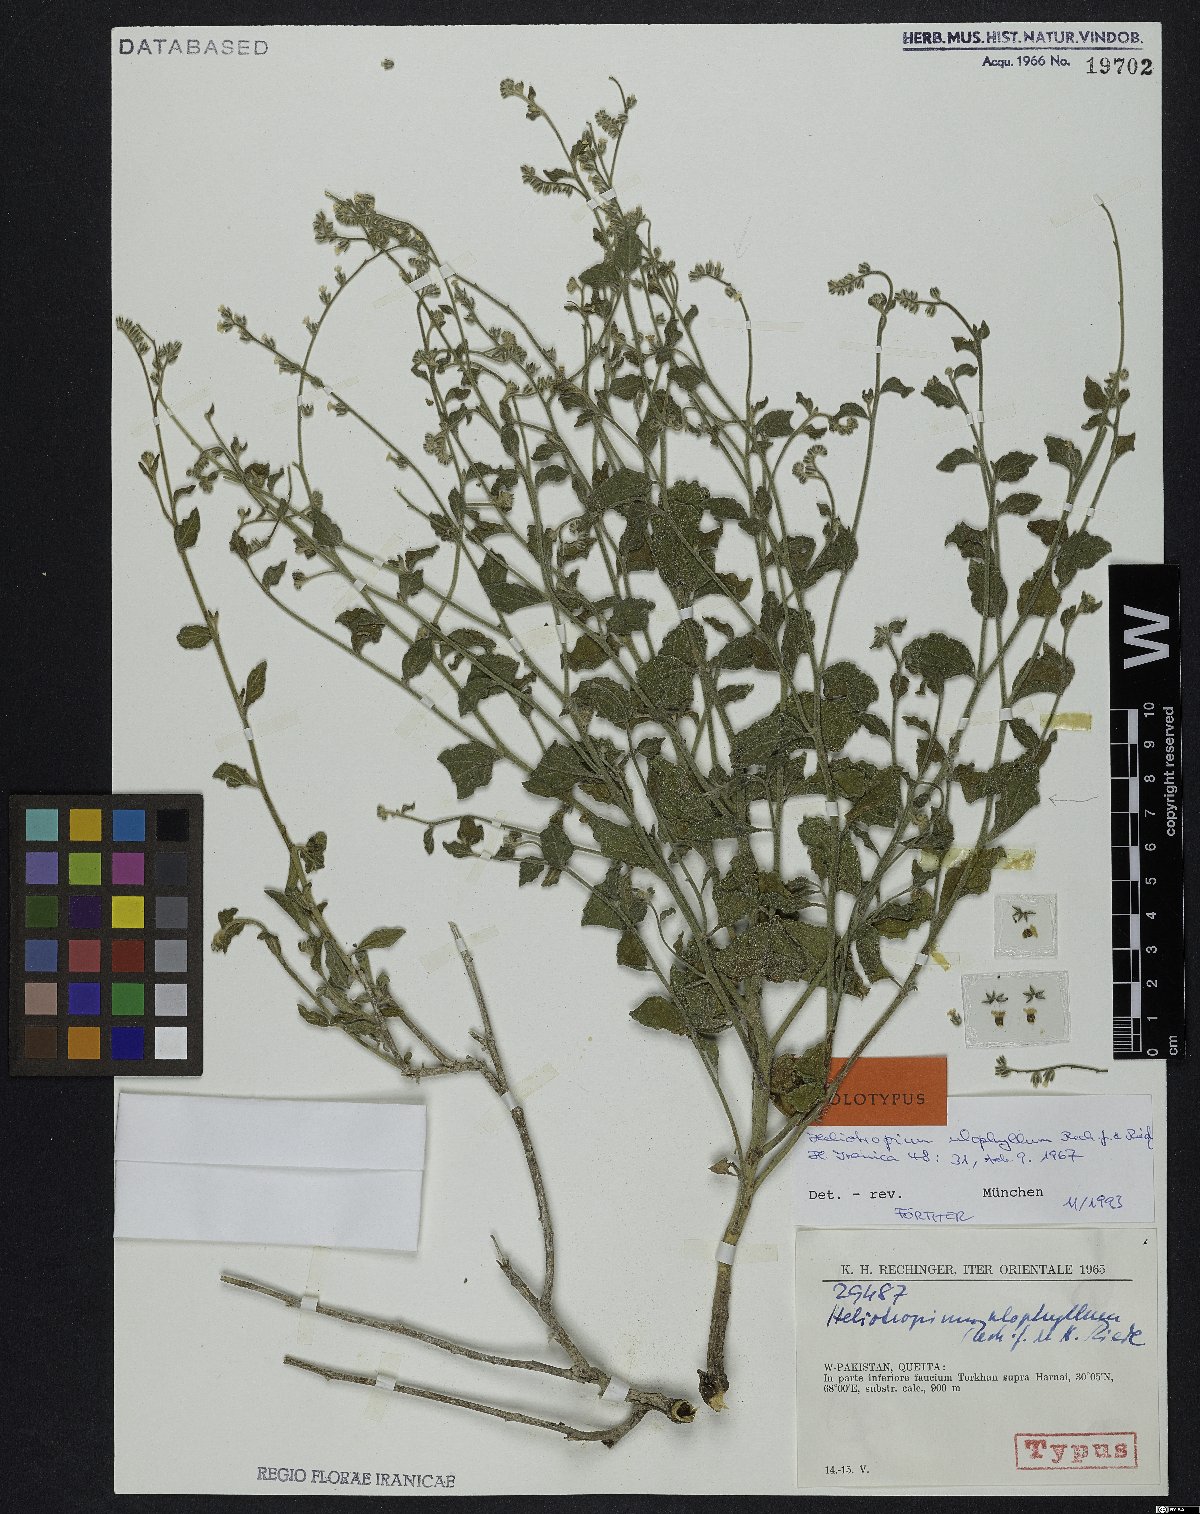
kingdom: Plantae
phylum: Tracheophyta
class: Magnoliopsida
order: Boraginales
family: Heliotropiaceae
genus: Heliotropium
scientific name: Heliotropium ulophyllum
